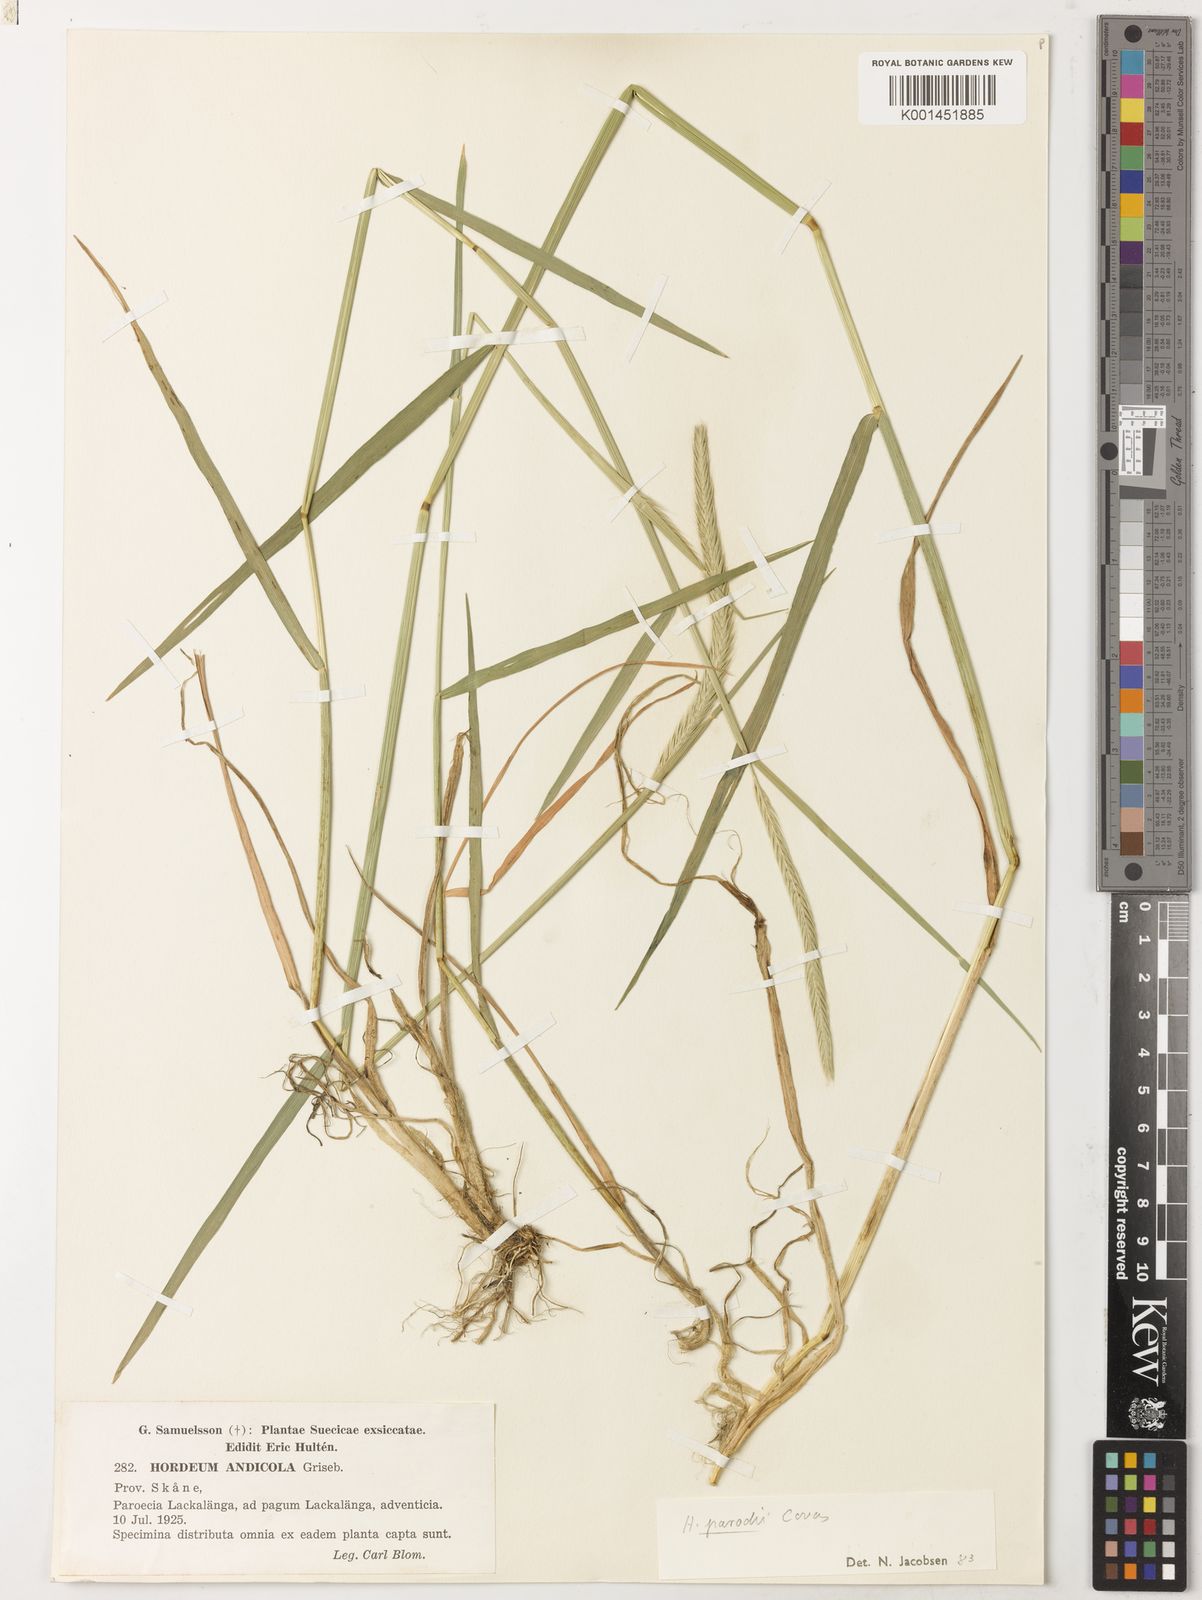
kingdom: Plantae
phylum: Tracheophyta
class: Liliopsida
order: Poales
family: Poaceae
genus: Hordeum
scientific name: Hordeum parodii
